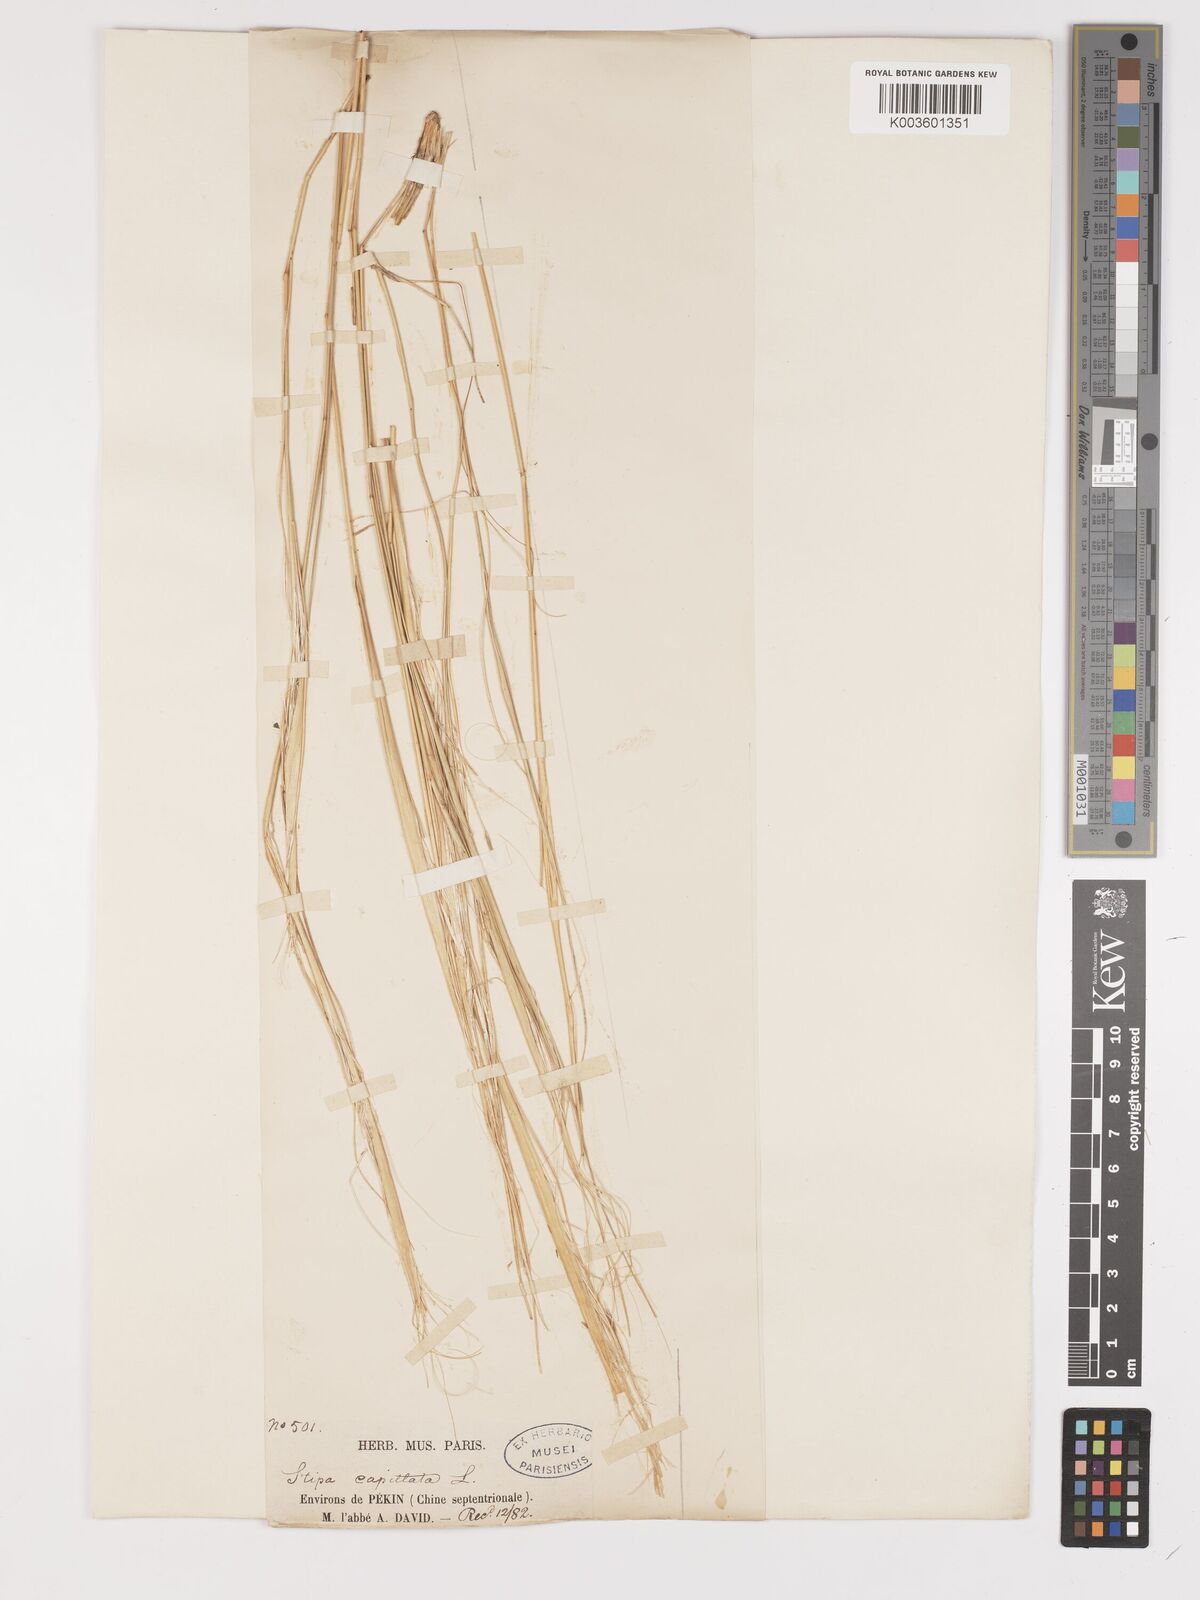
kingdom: Plantae
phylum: Tracheophyta
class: Liliopsida
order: Poales
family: Poaceae
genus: Stipa
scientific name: Stipa capillata
